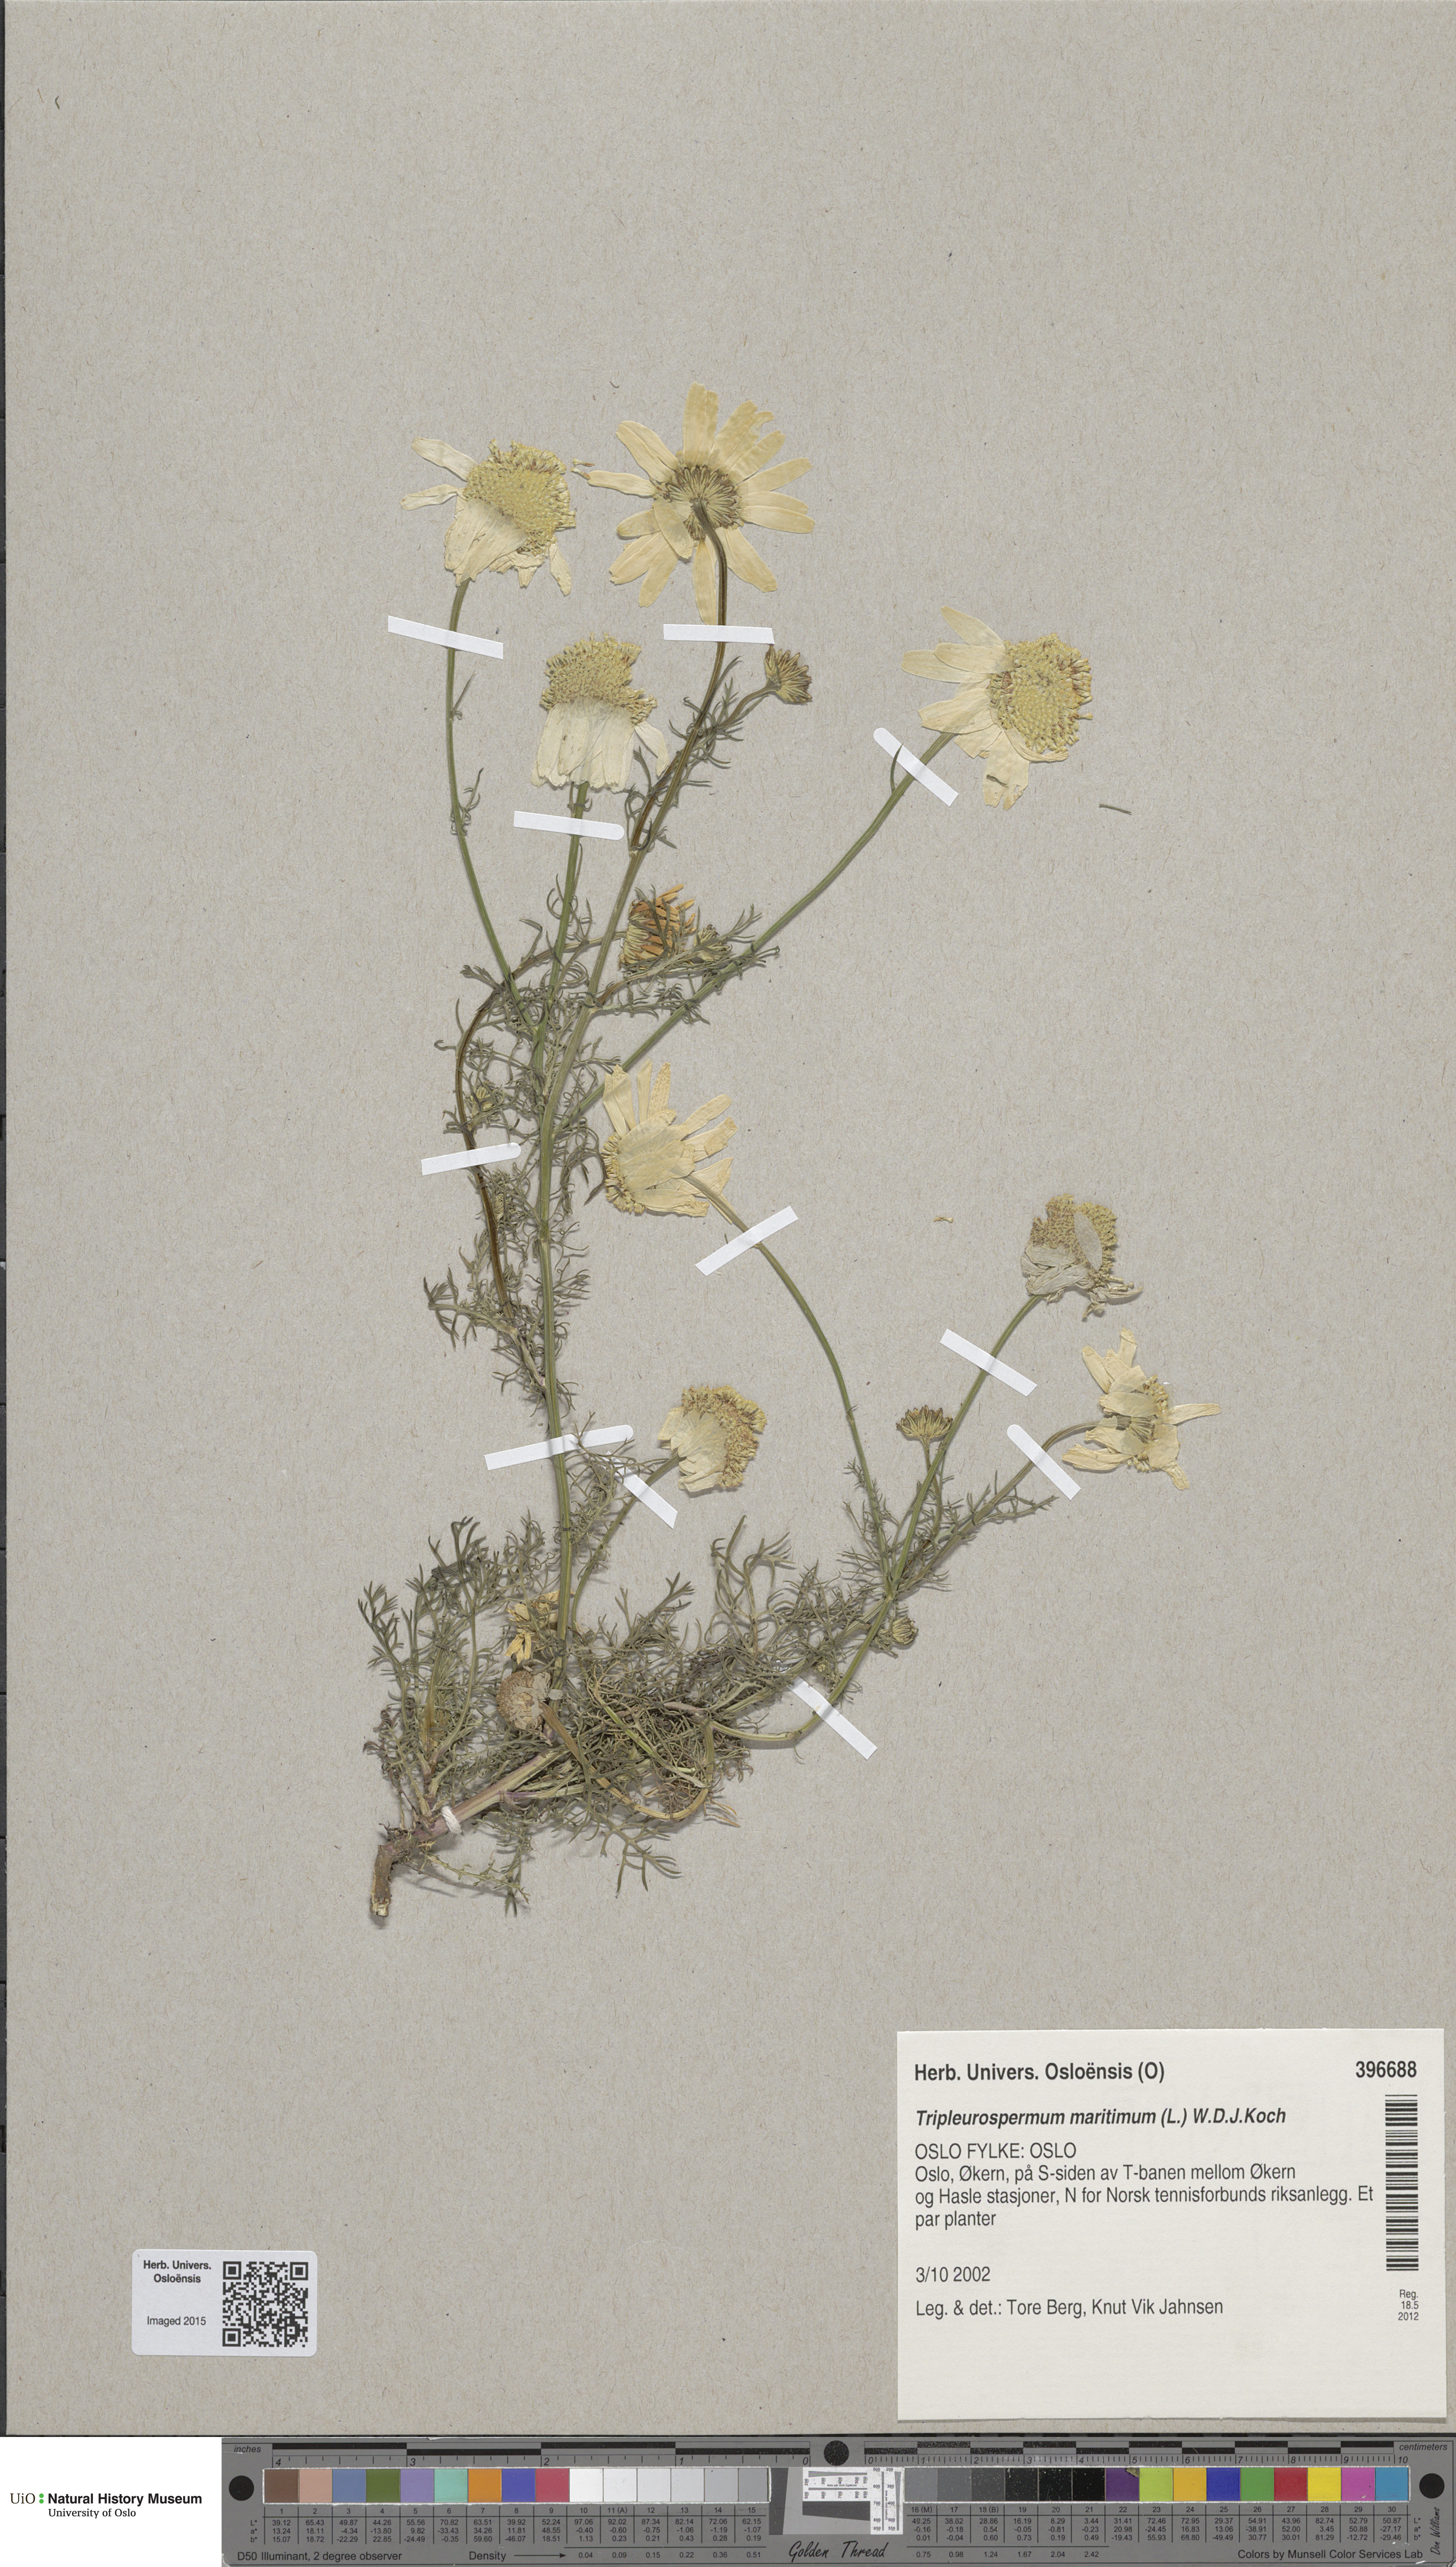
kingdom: Plantae
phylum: Tracheophyta
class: Magnoliopsida
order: Asterales
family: Asteraceae
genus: Tripleurospermum
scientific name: Tripleurospermum inodorum
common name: Scentless mayweed
